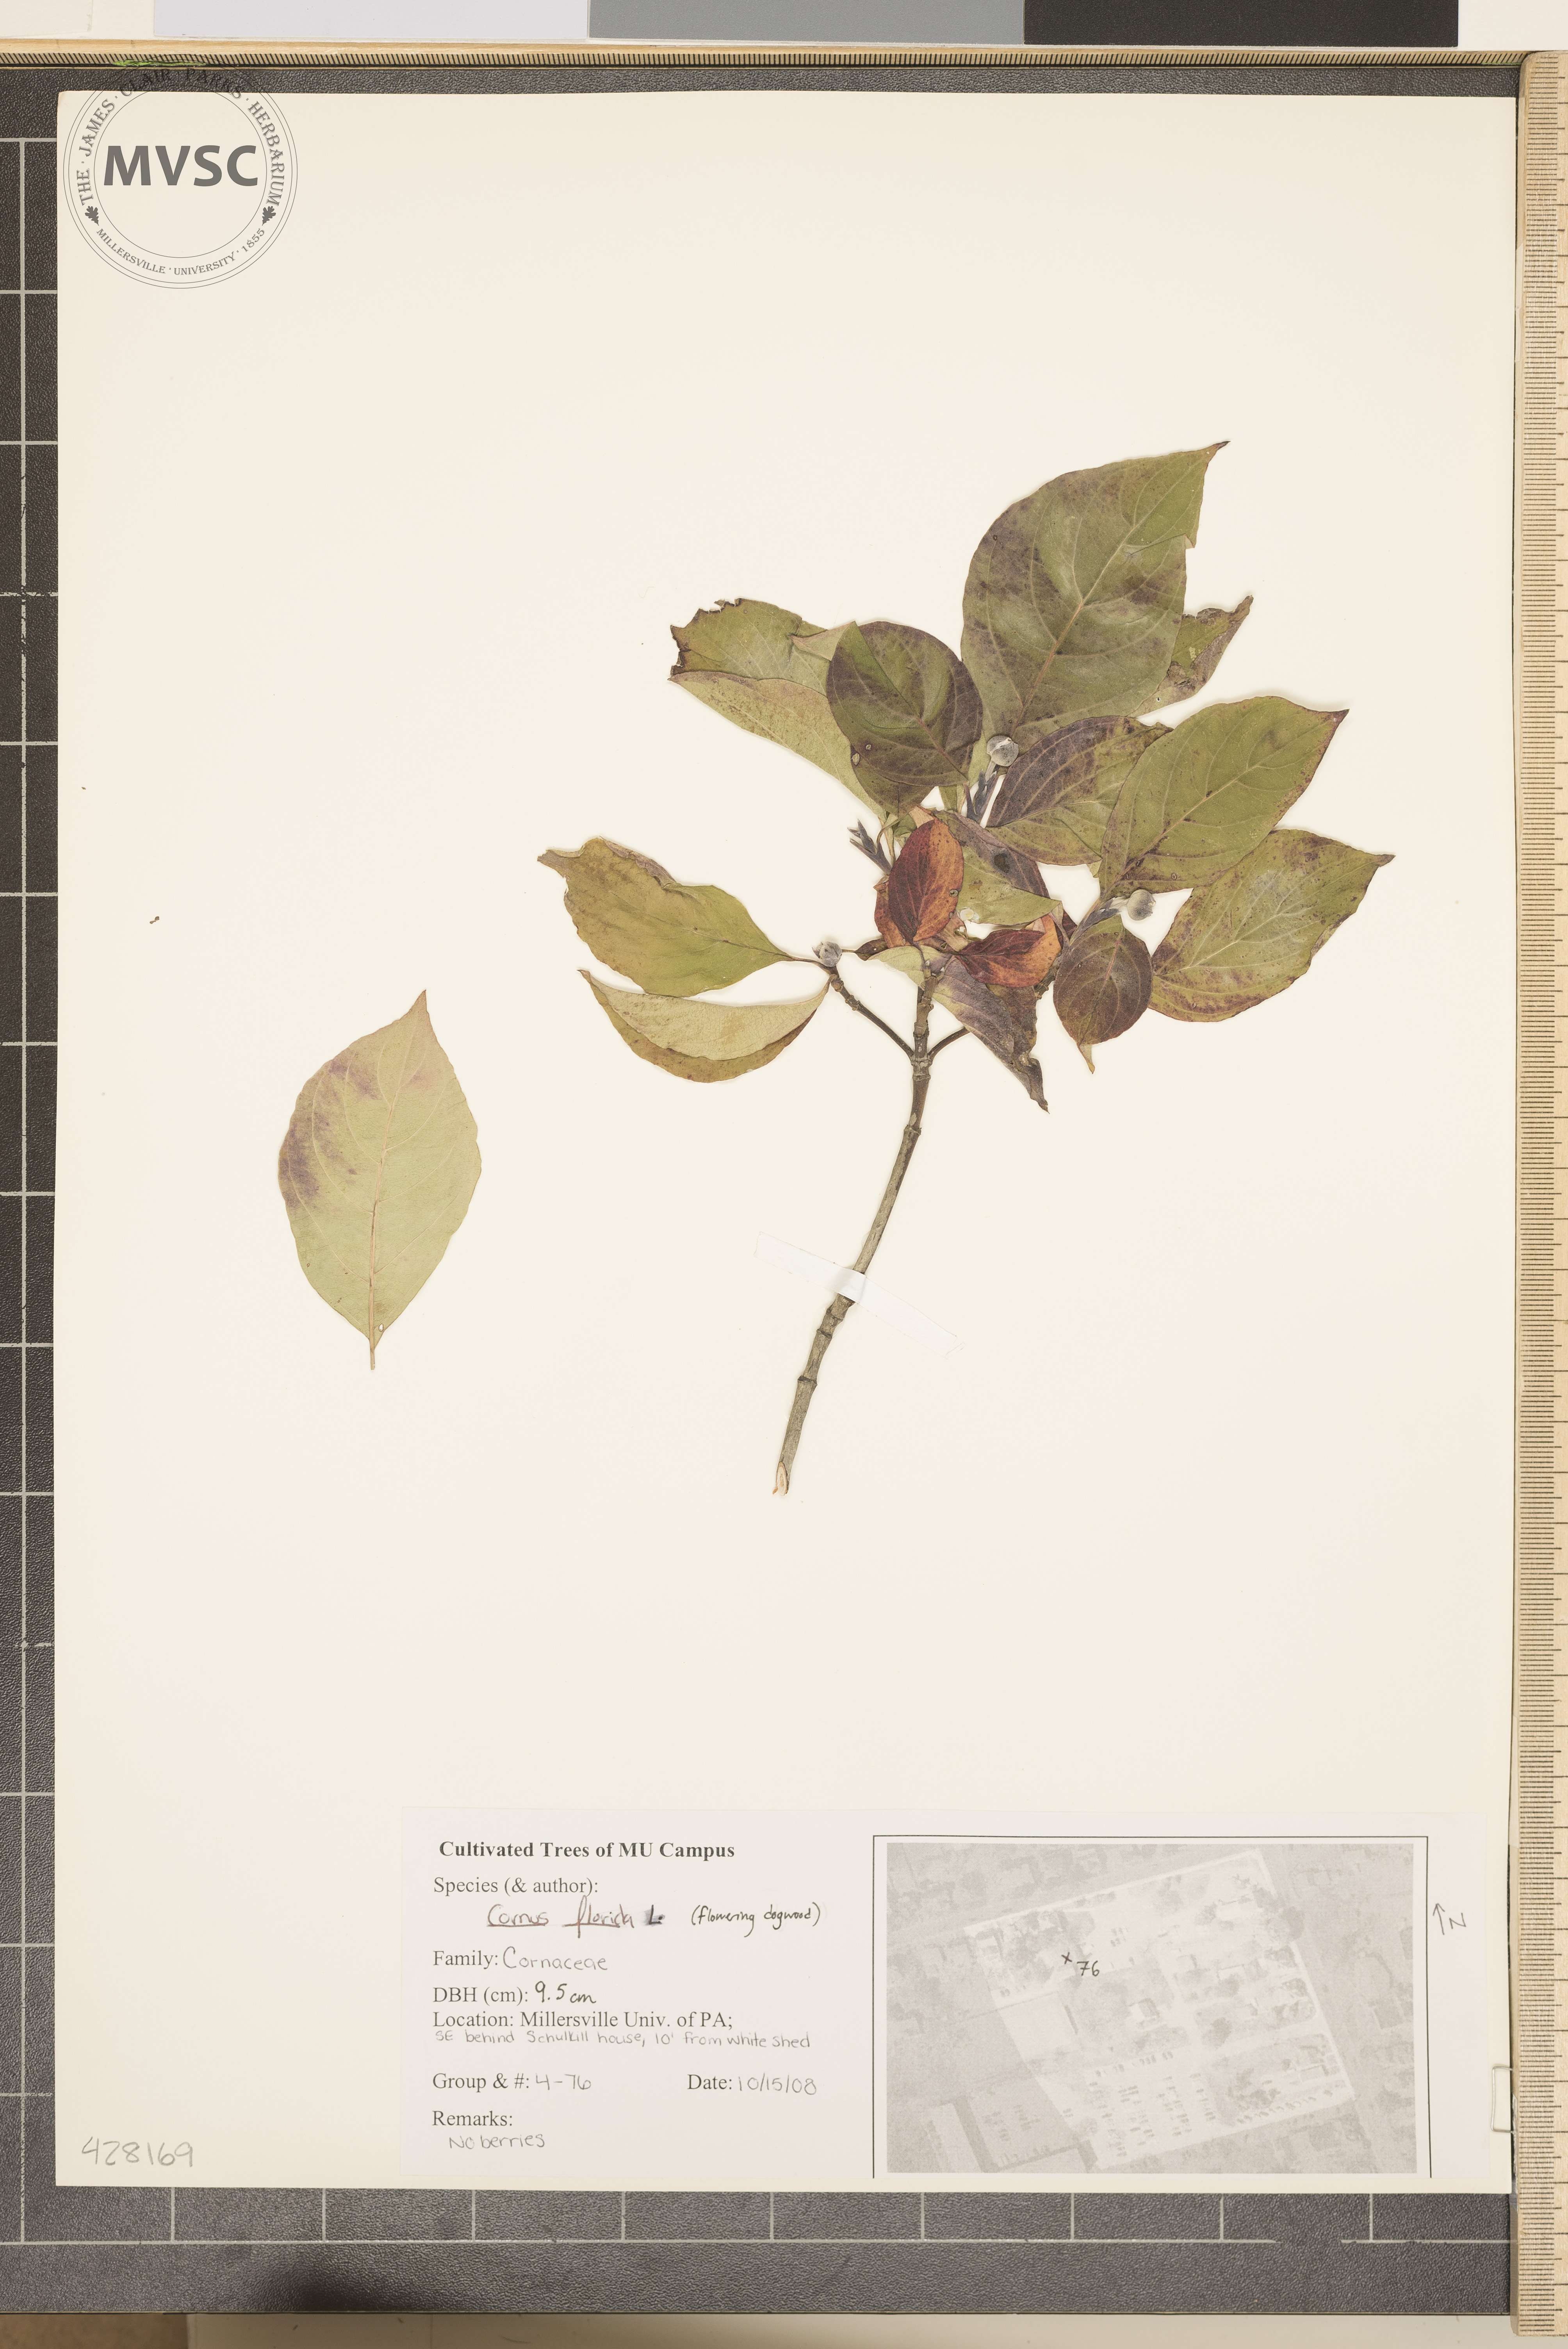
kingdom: Plantae
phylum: Tracheophyta
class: Magnoliopsida
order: Cornales
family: Cornaceae
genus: Cornus
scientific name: Cornus florida
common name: Flowering Dogwood
